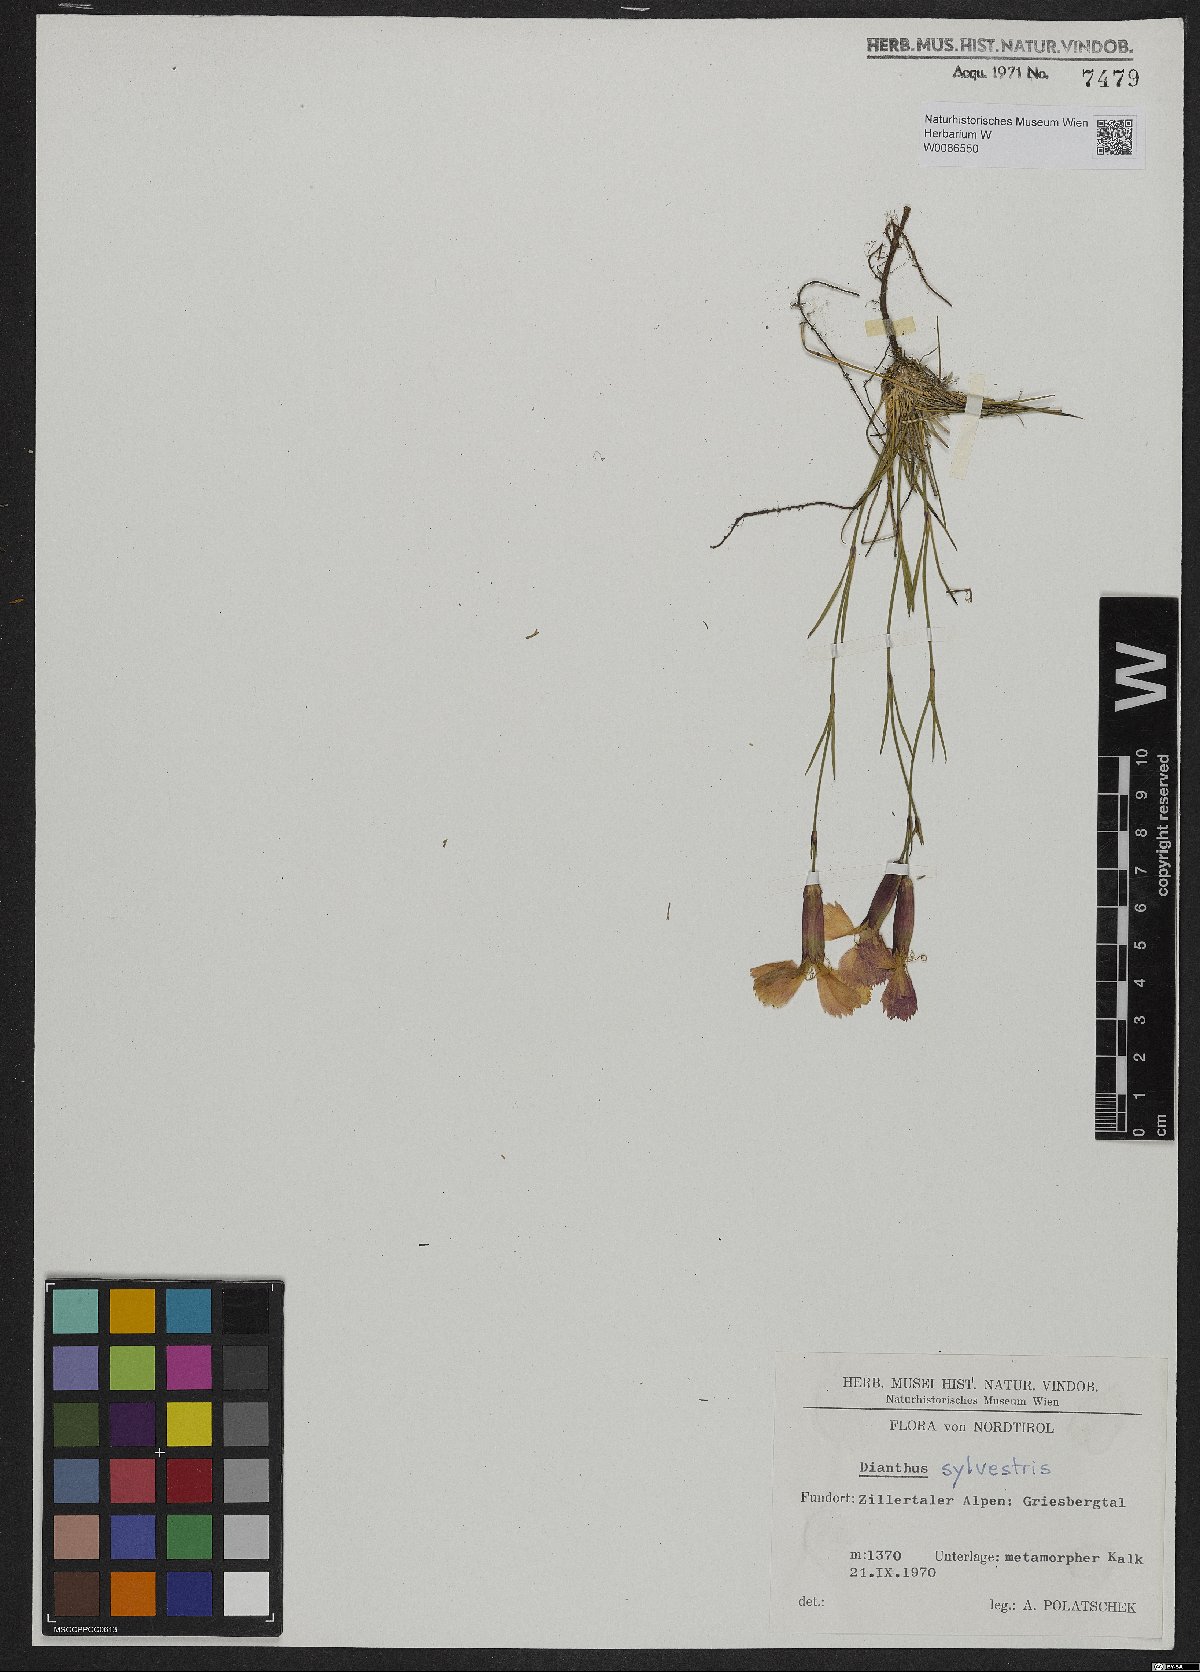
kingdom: Plantae
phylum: Tracheophyta
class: Magnoliopsida
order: Caryophyllales
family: Caryophyllaceae
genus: Dianthus
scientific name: Dianthus sylvestris
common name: Wood pink
